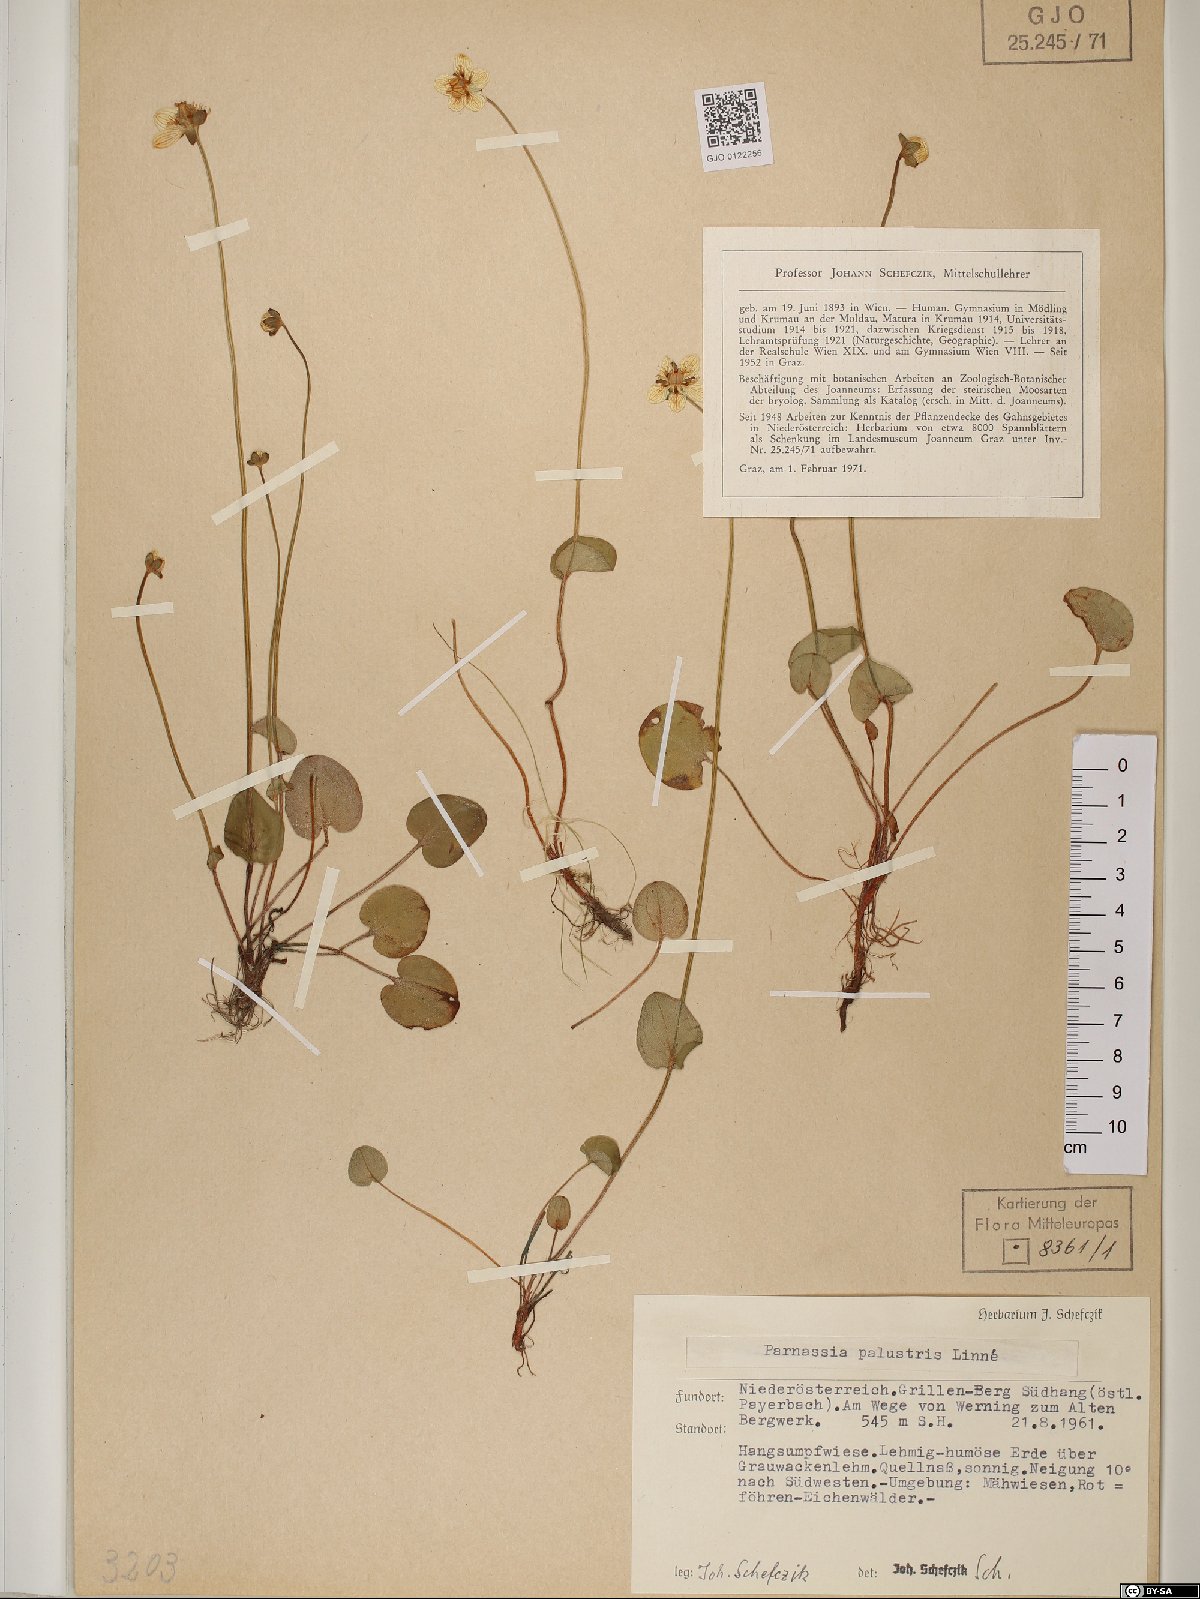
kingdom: Plantae
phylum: Tracheophyta
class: Magnoliopsida
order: Celastrales
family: Parnassiaceae
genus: Parnassia
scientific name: Parnassia palustris
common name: Grass-of-parnassus
